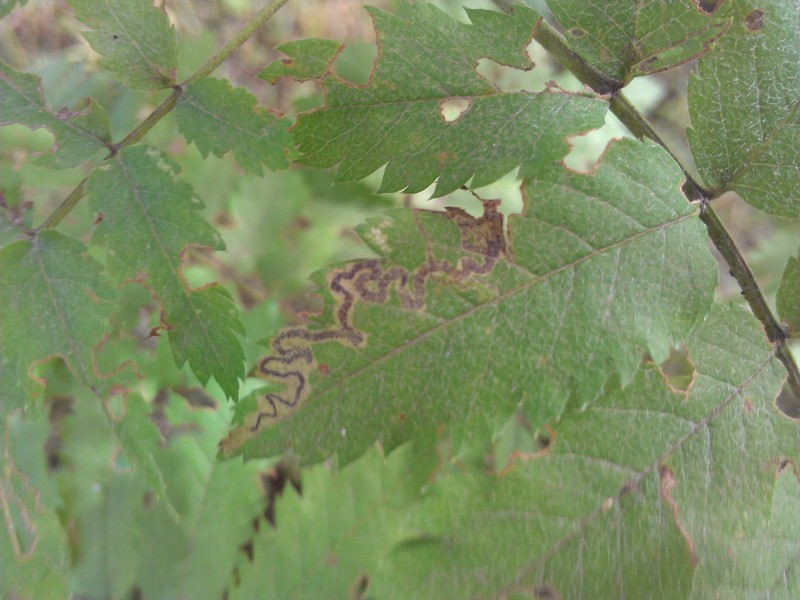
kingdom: Animalia
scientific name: Animalia
